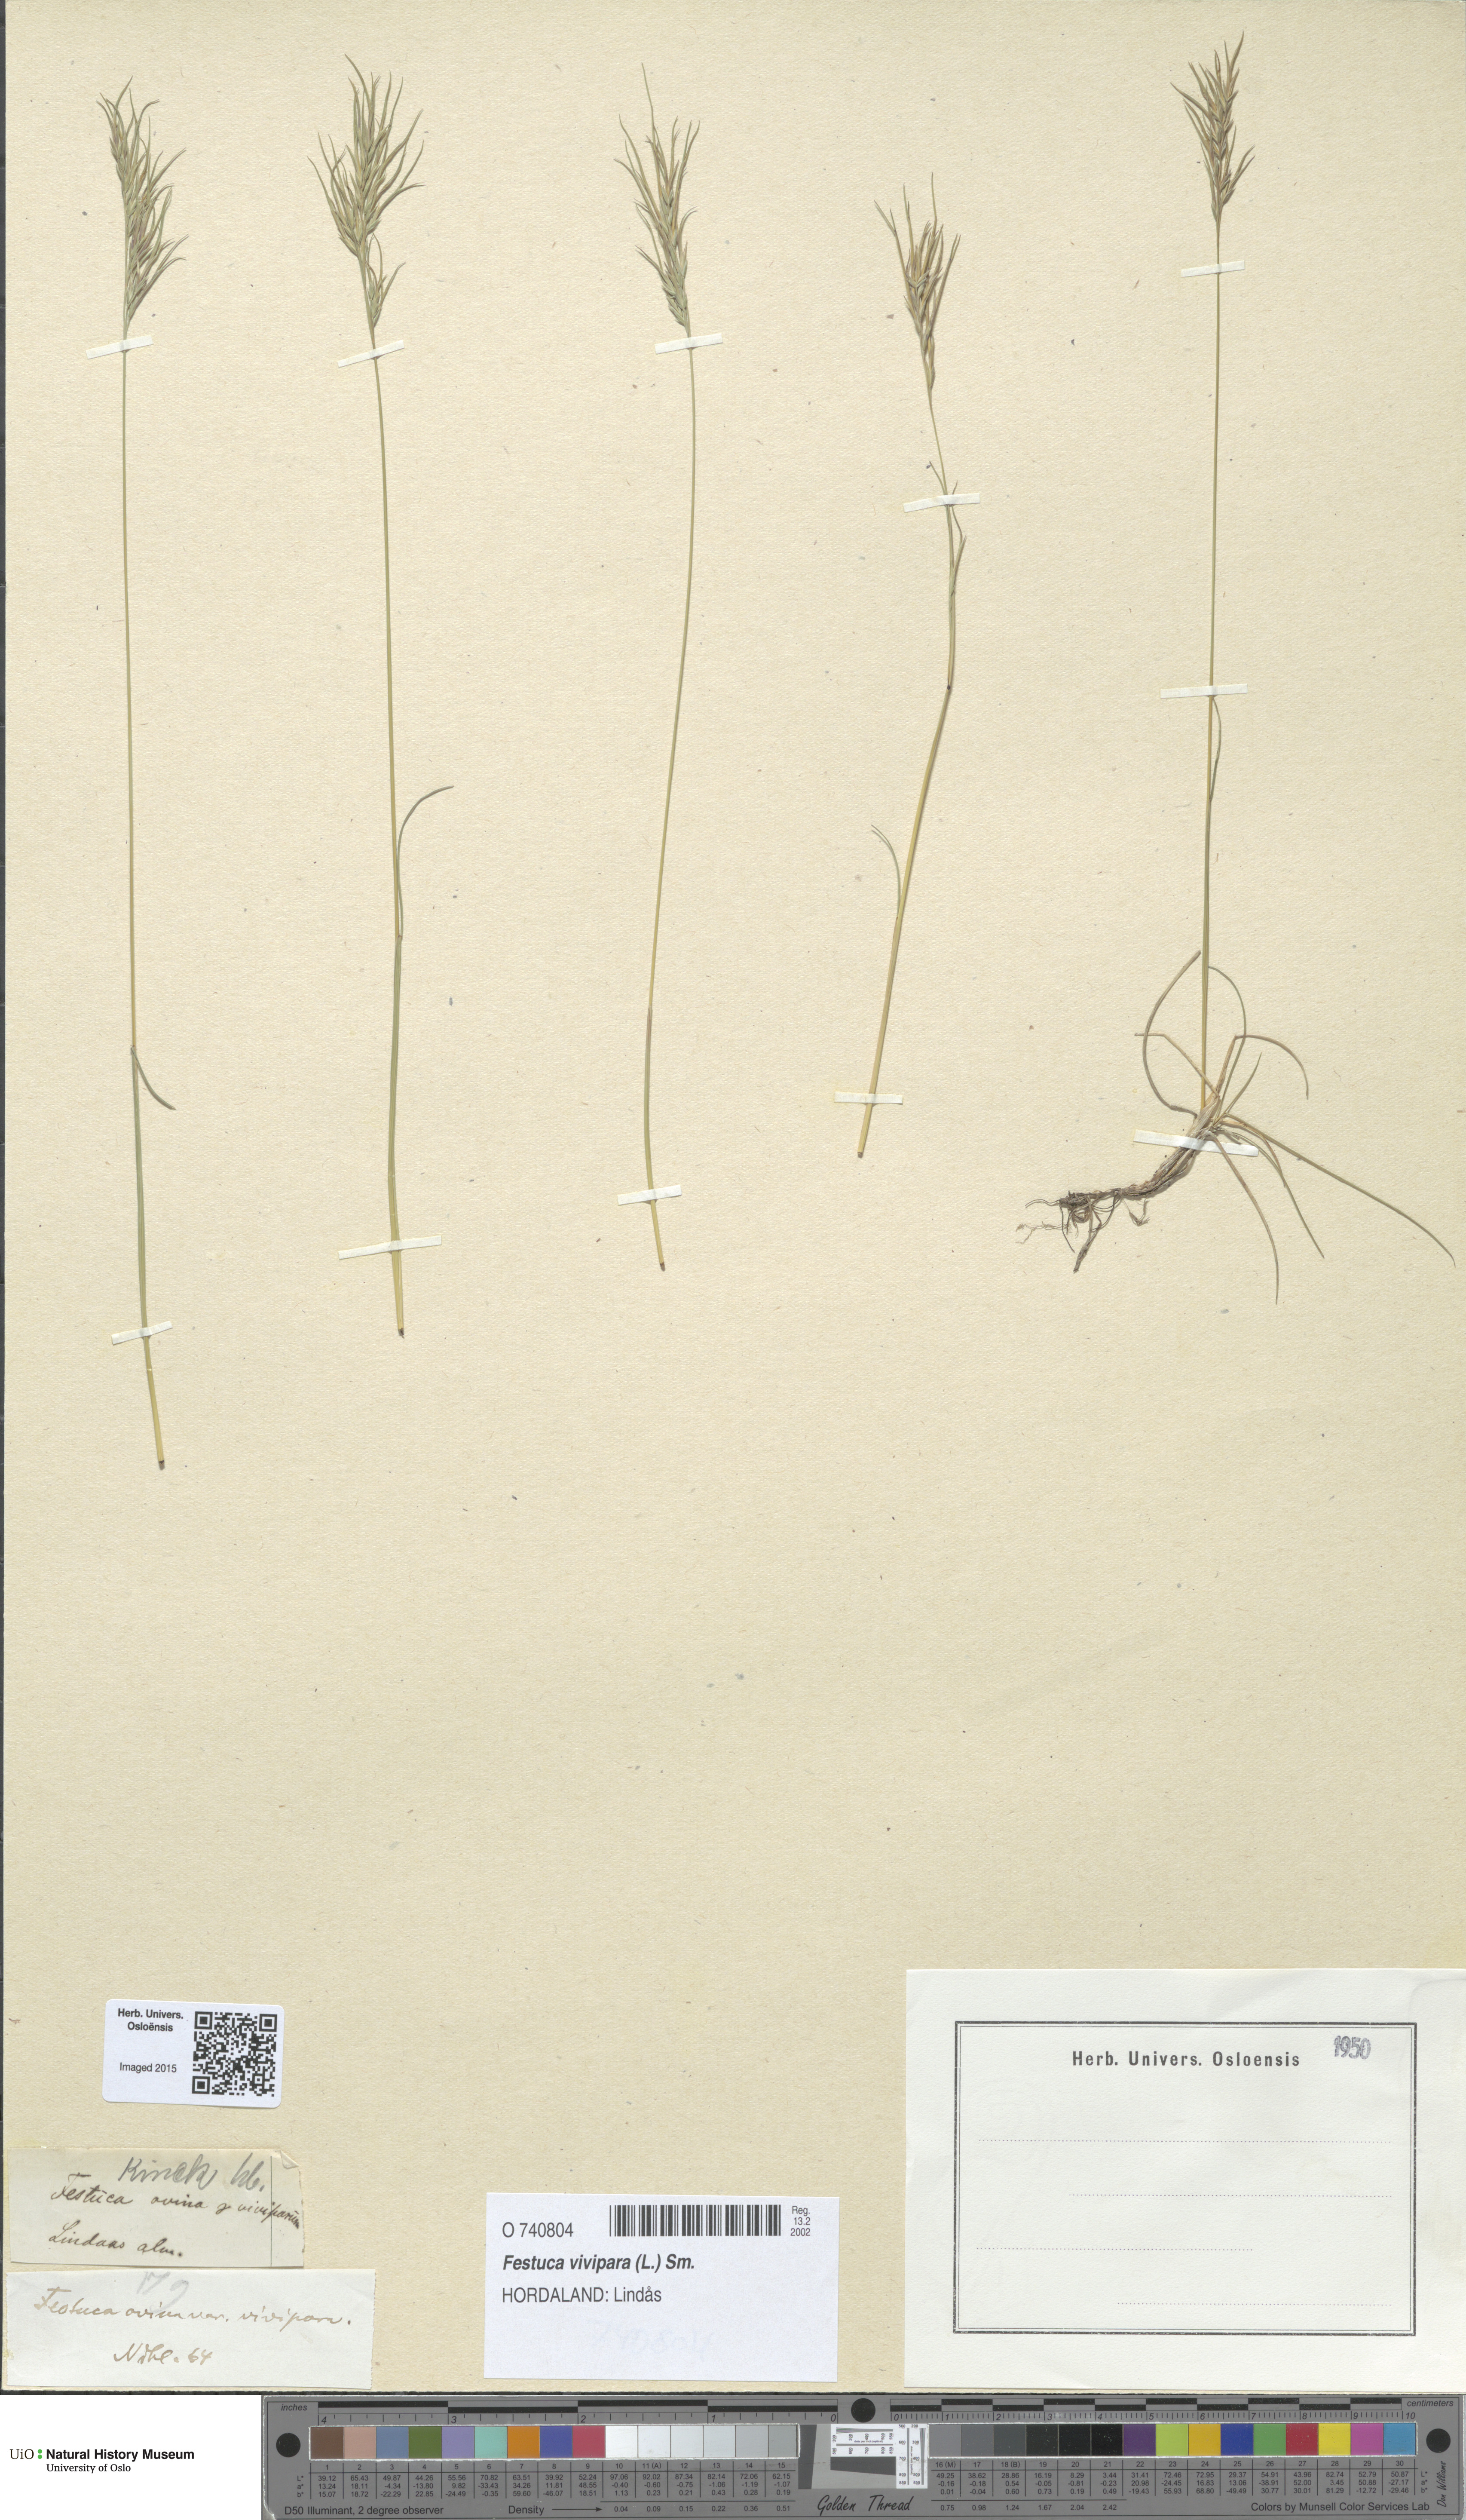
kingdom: Plantae
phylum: Tracheophyta
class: Liliopsida
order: Poales
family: Poaceae
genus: Festuca
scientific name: Festuca vivipara
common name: Viviparous sheep's-fescue
